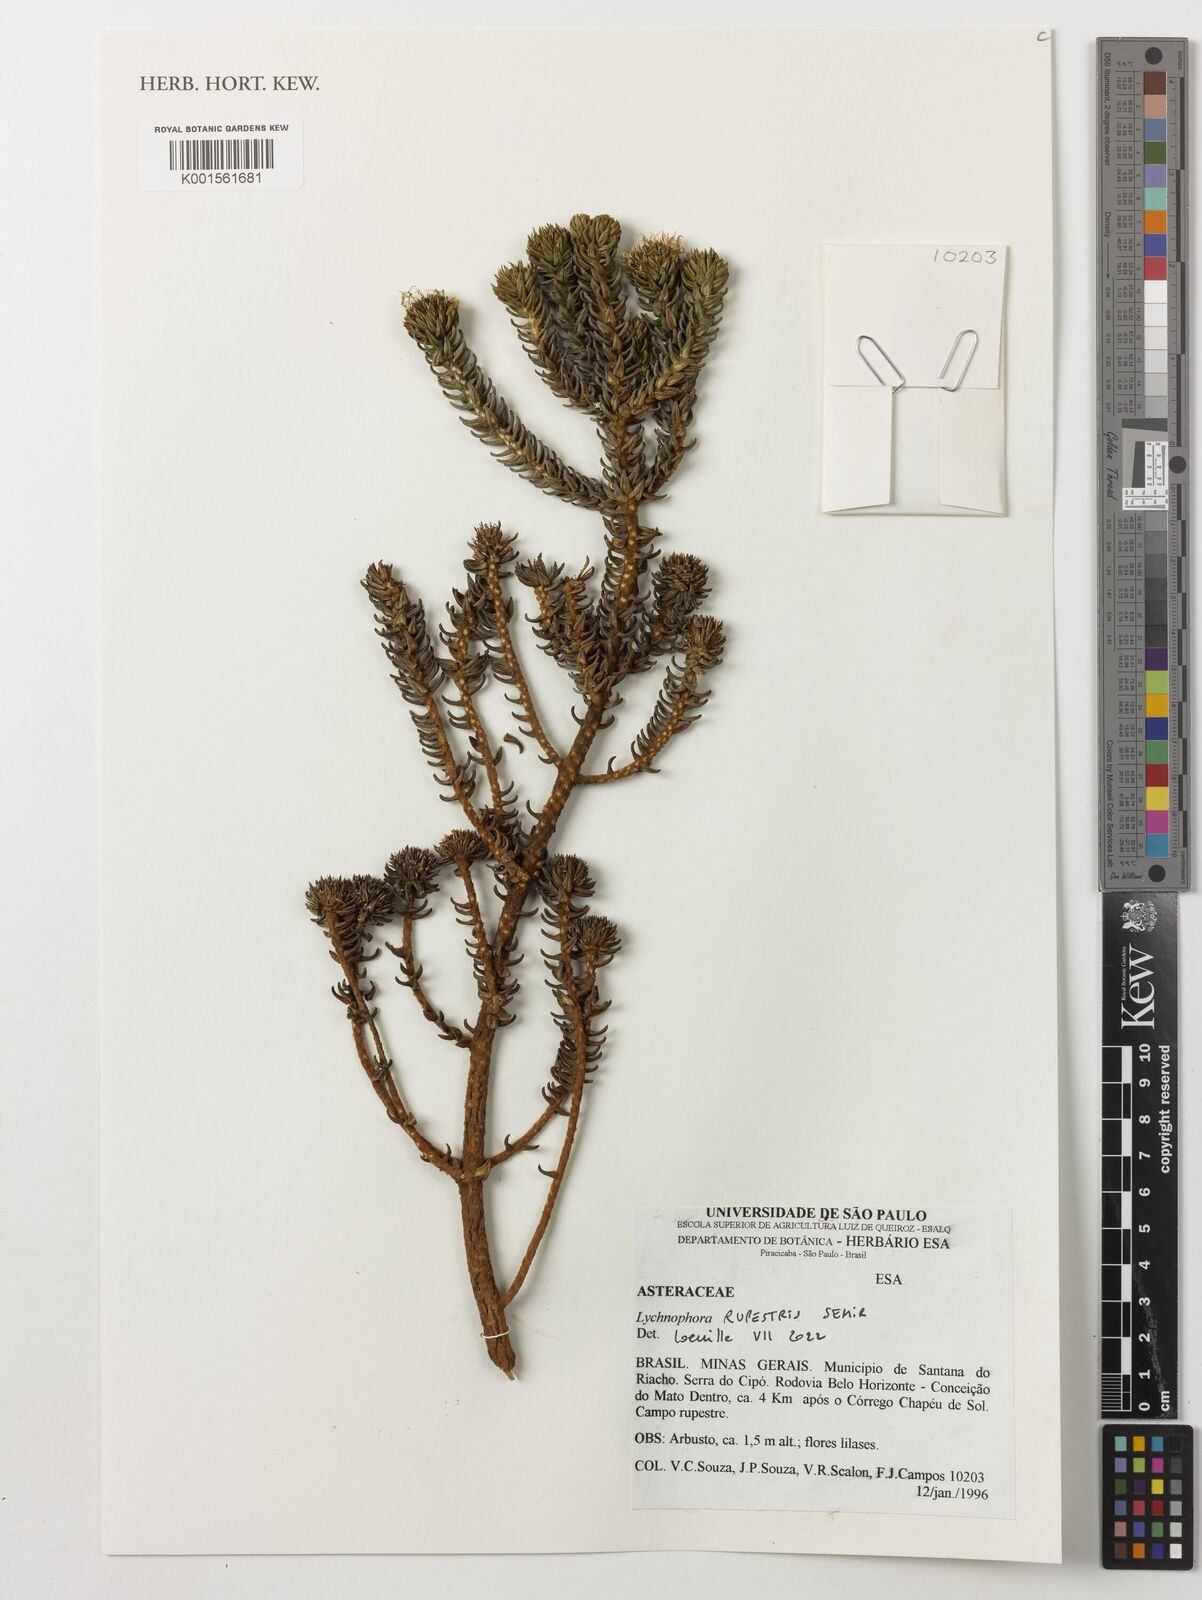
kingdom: Plantae
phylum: Tracheophyta
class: Magnoliopsida
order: Asterales
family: Asteraceae
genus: Lychnophora
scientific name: Lychnophora rupestris
